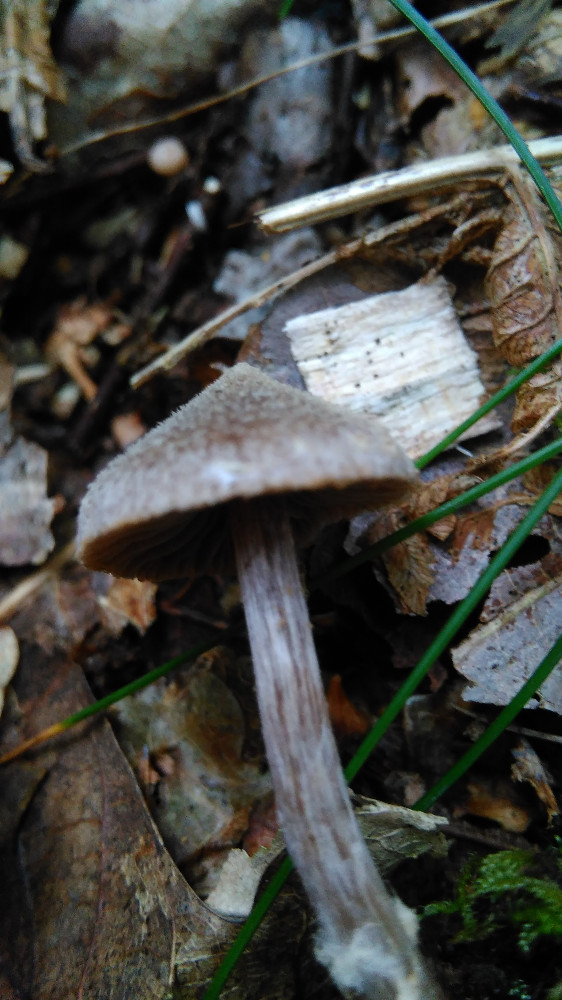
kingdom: Fungi
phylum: Basidiomycota
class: Agaricomycetes
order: Agaricales
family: Cortinariaceae
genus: Cortinarius
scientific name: Cortinarius
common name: pelargonie-slørhat
